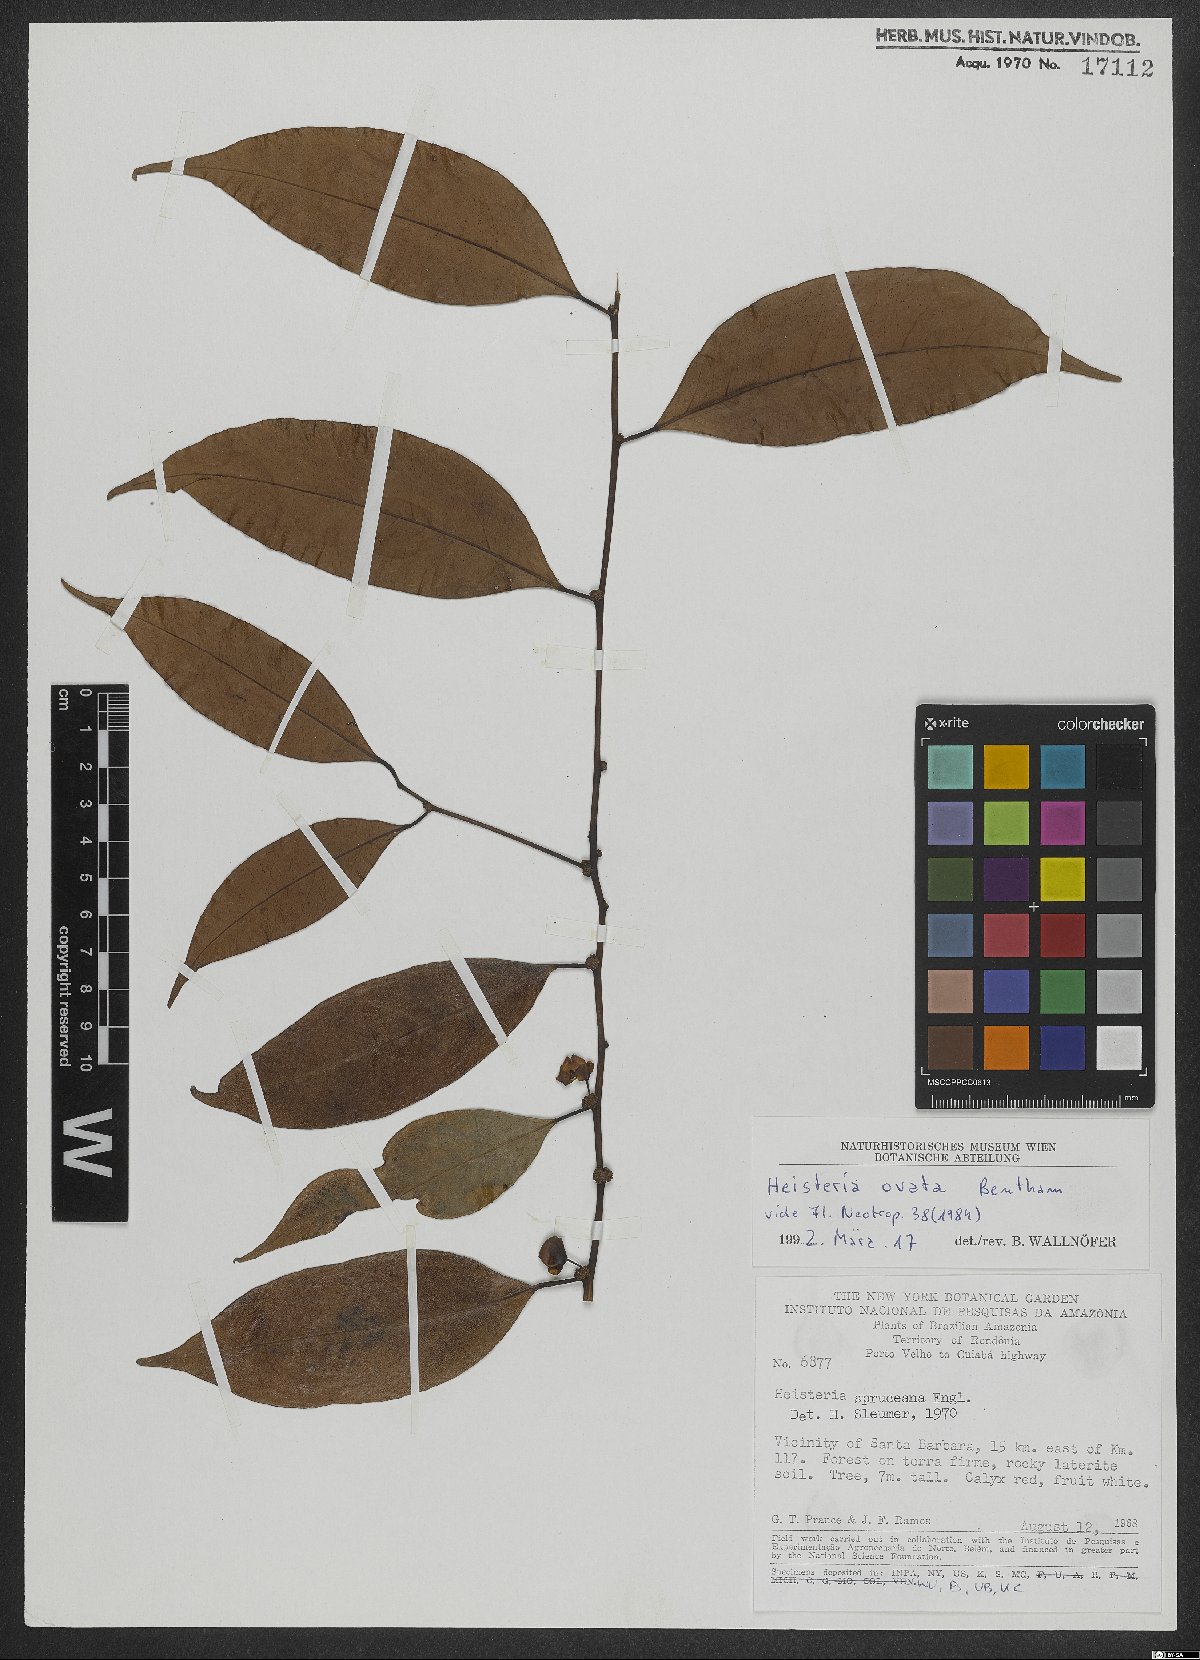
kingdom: Plantae
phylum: Tracheophyta
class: Magnoliopsida
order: Santalales
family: Erythropalaceae
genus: Heisteria
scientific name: Heisteria ovata
